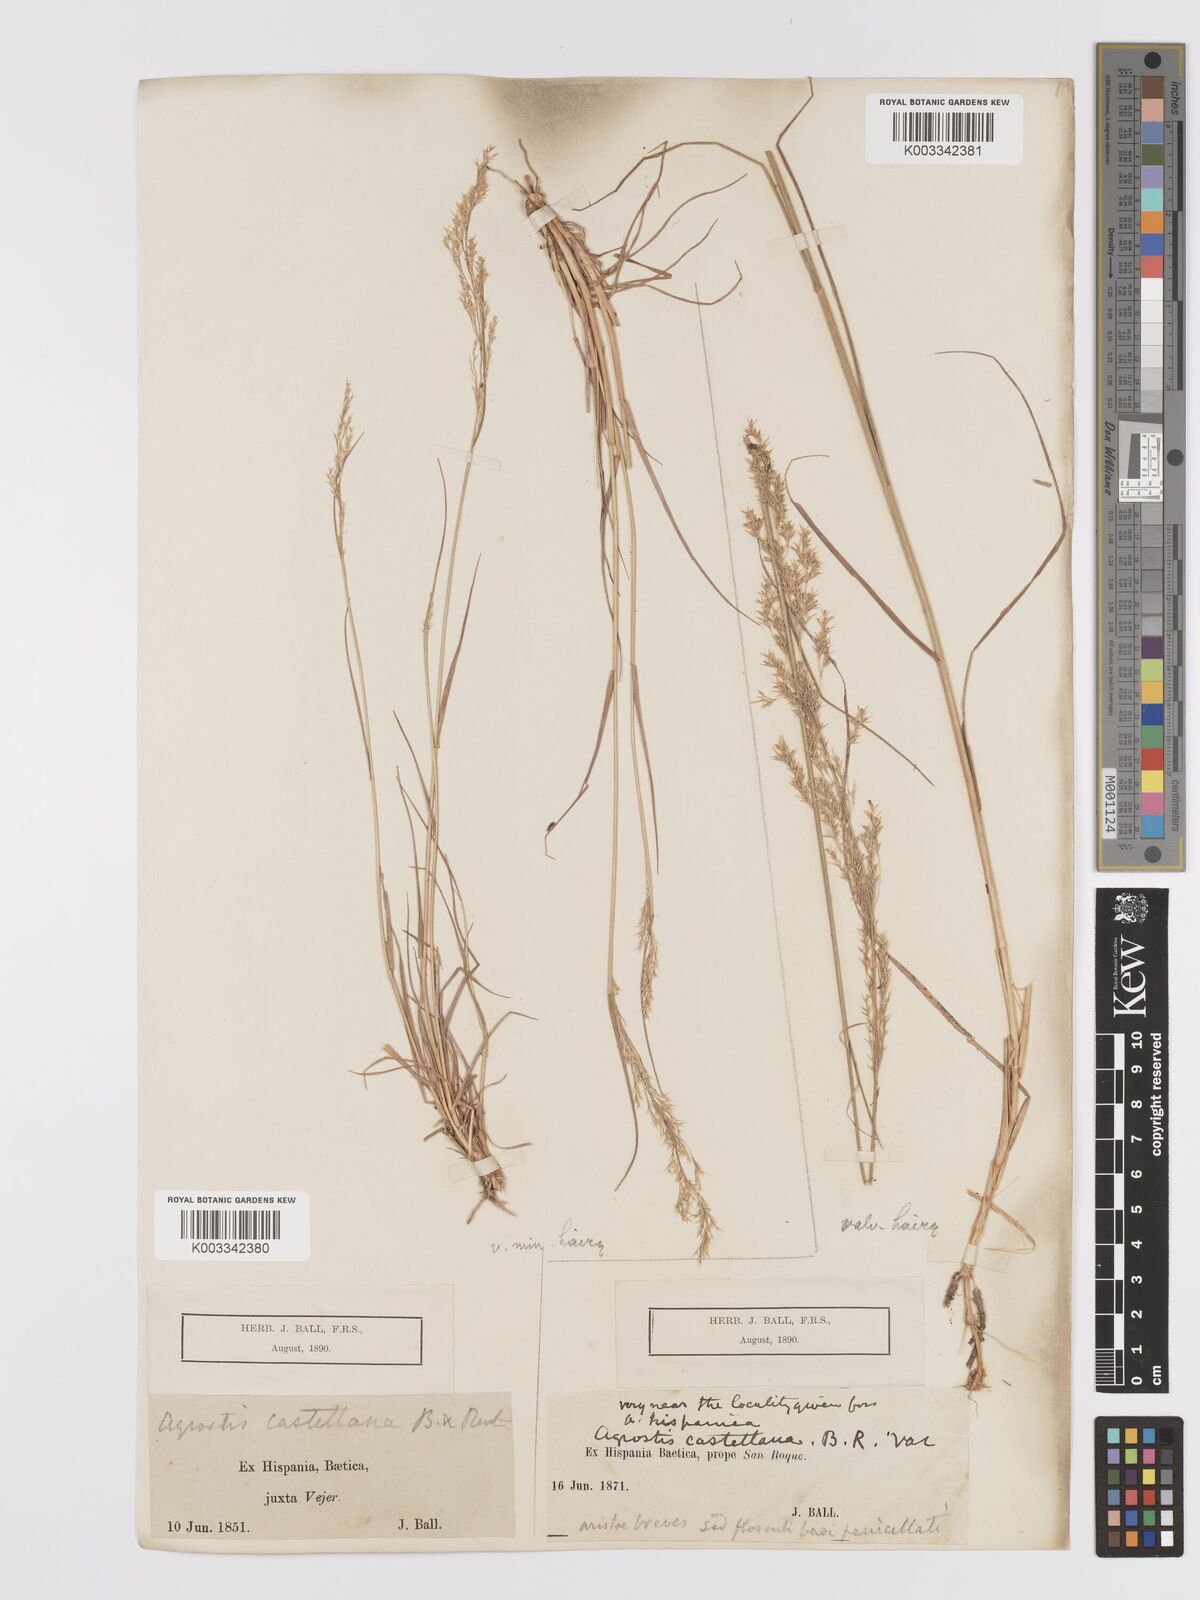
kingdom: Plantae
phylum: Tracheophyta
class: Liliopsida
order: Poales
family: Poaceae
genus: Agrostis
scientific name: Agrostis castriferrei
